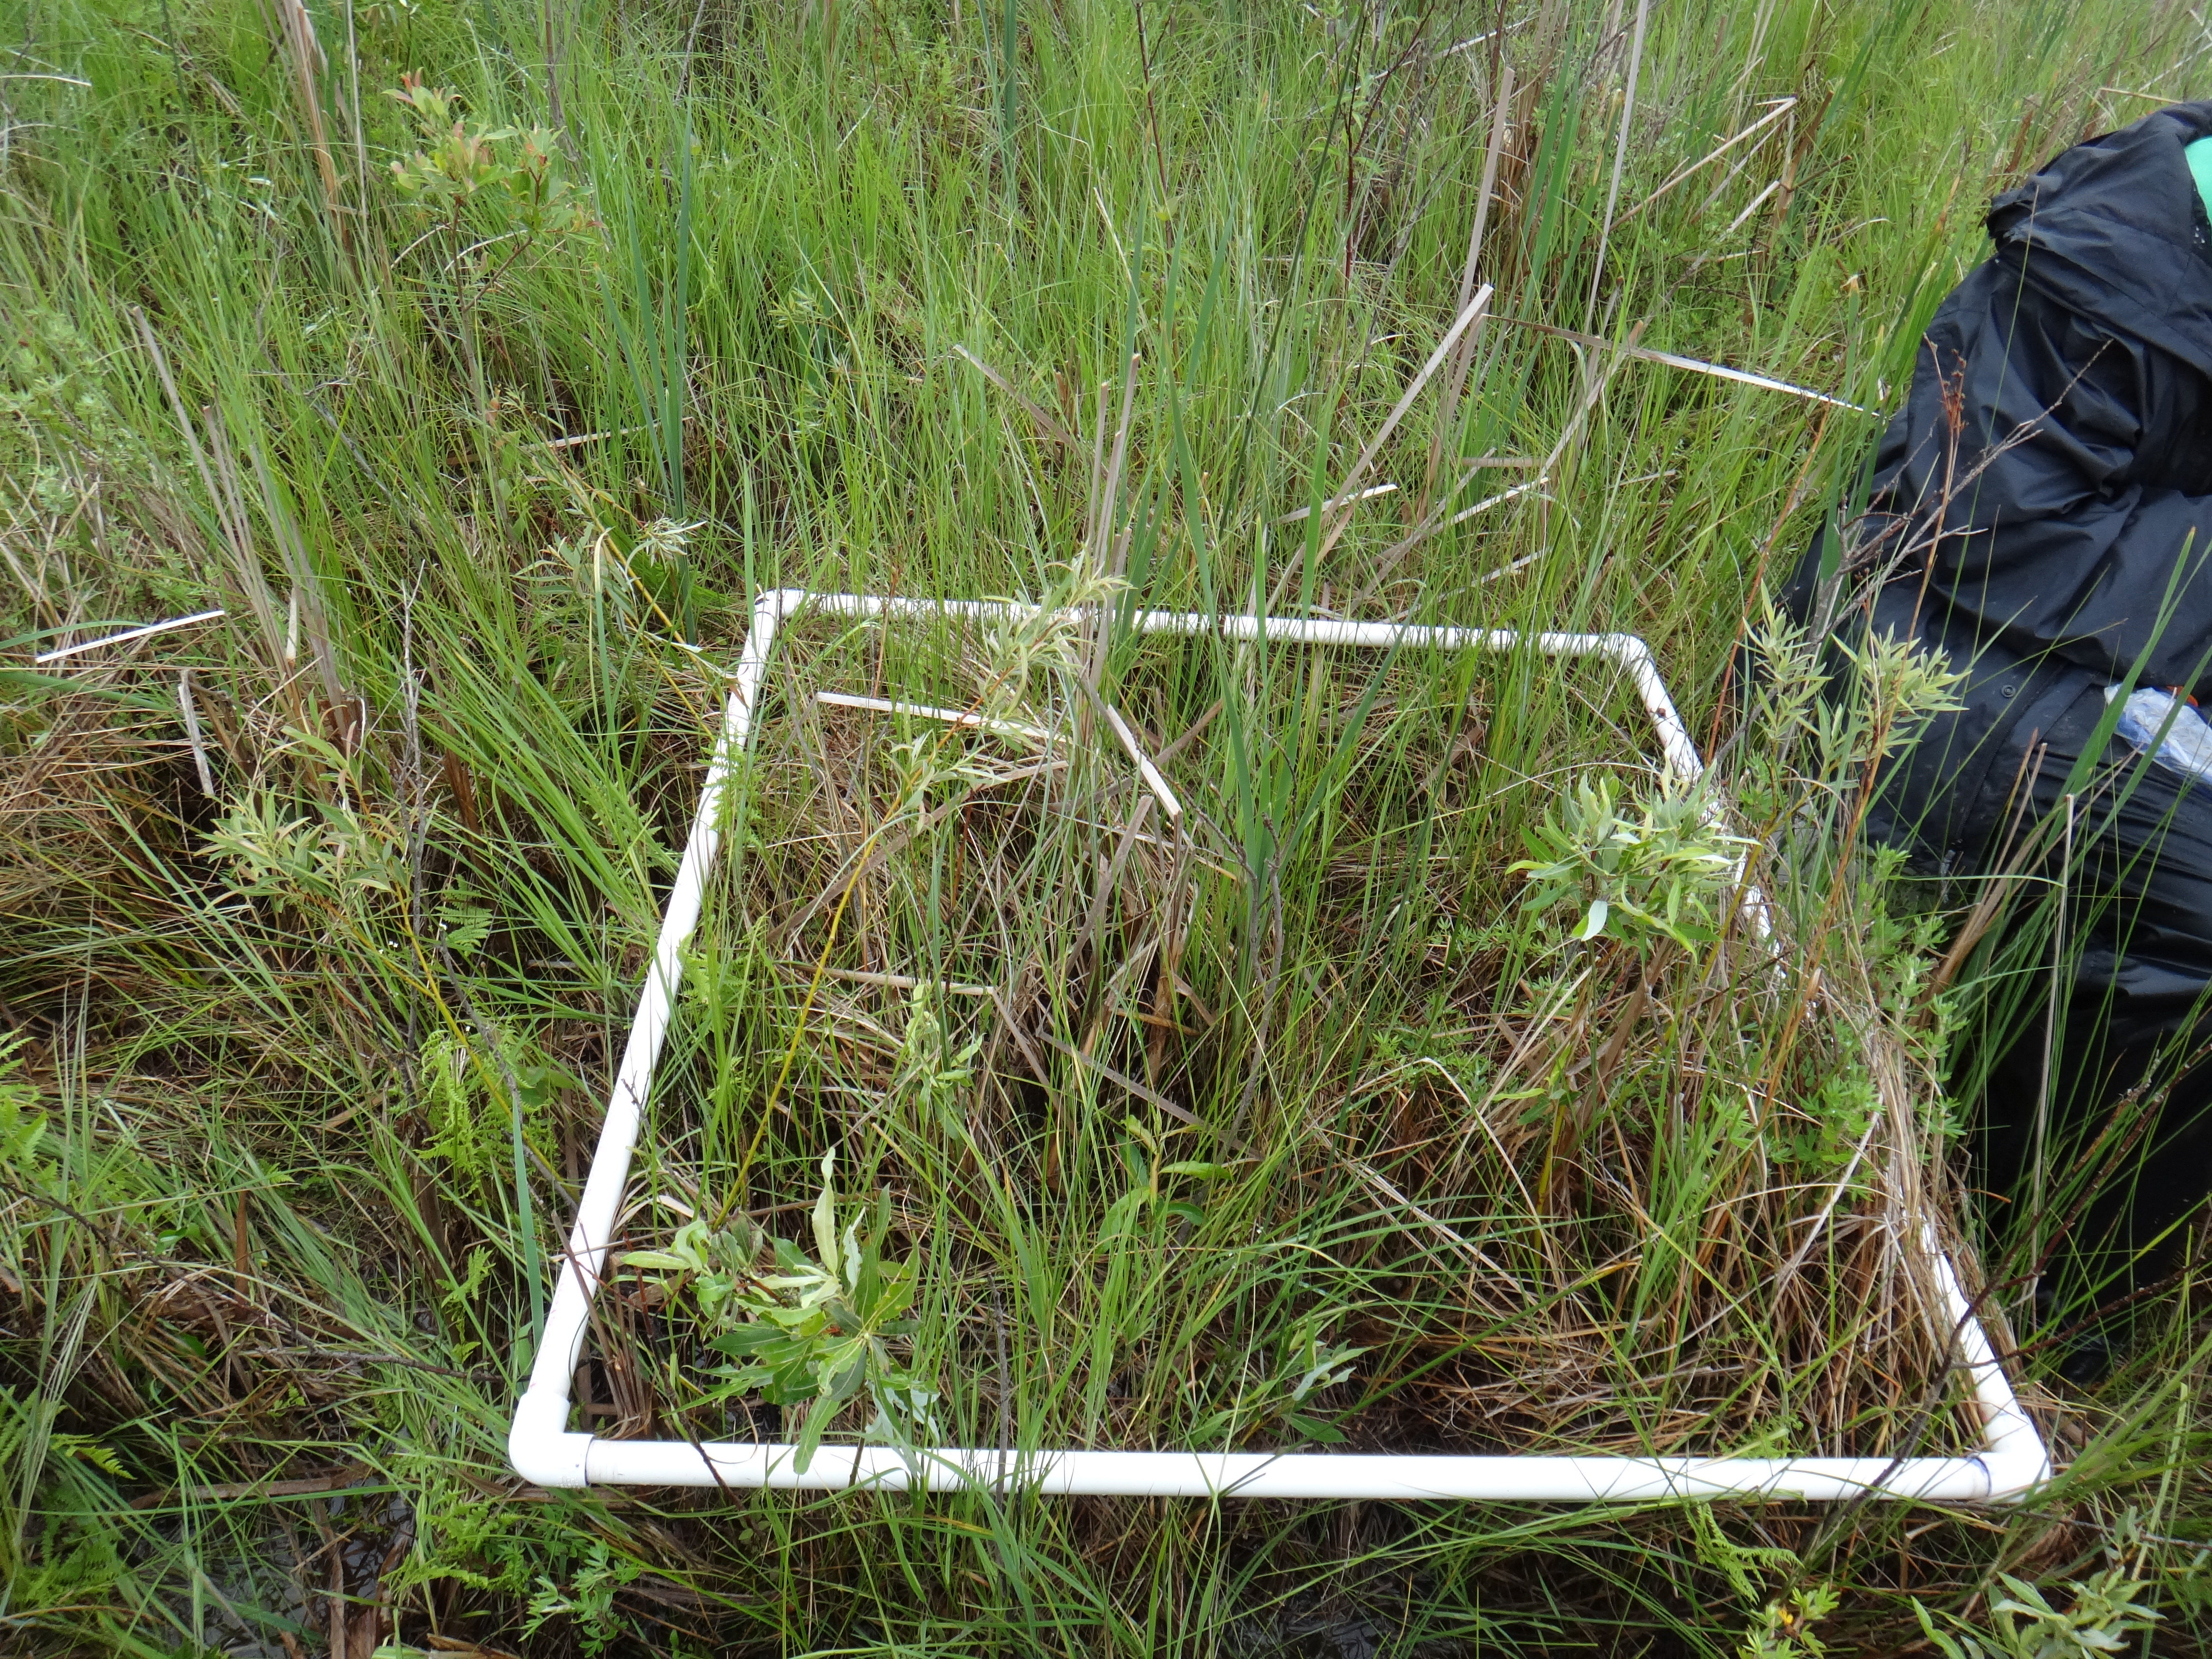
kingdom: Plantae
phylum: Tracheophyta
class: Liliopsida
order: Poales
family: Cyperaceae
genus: Scirpus
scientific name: Scirpus
